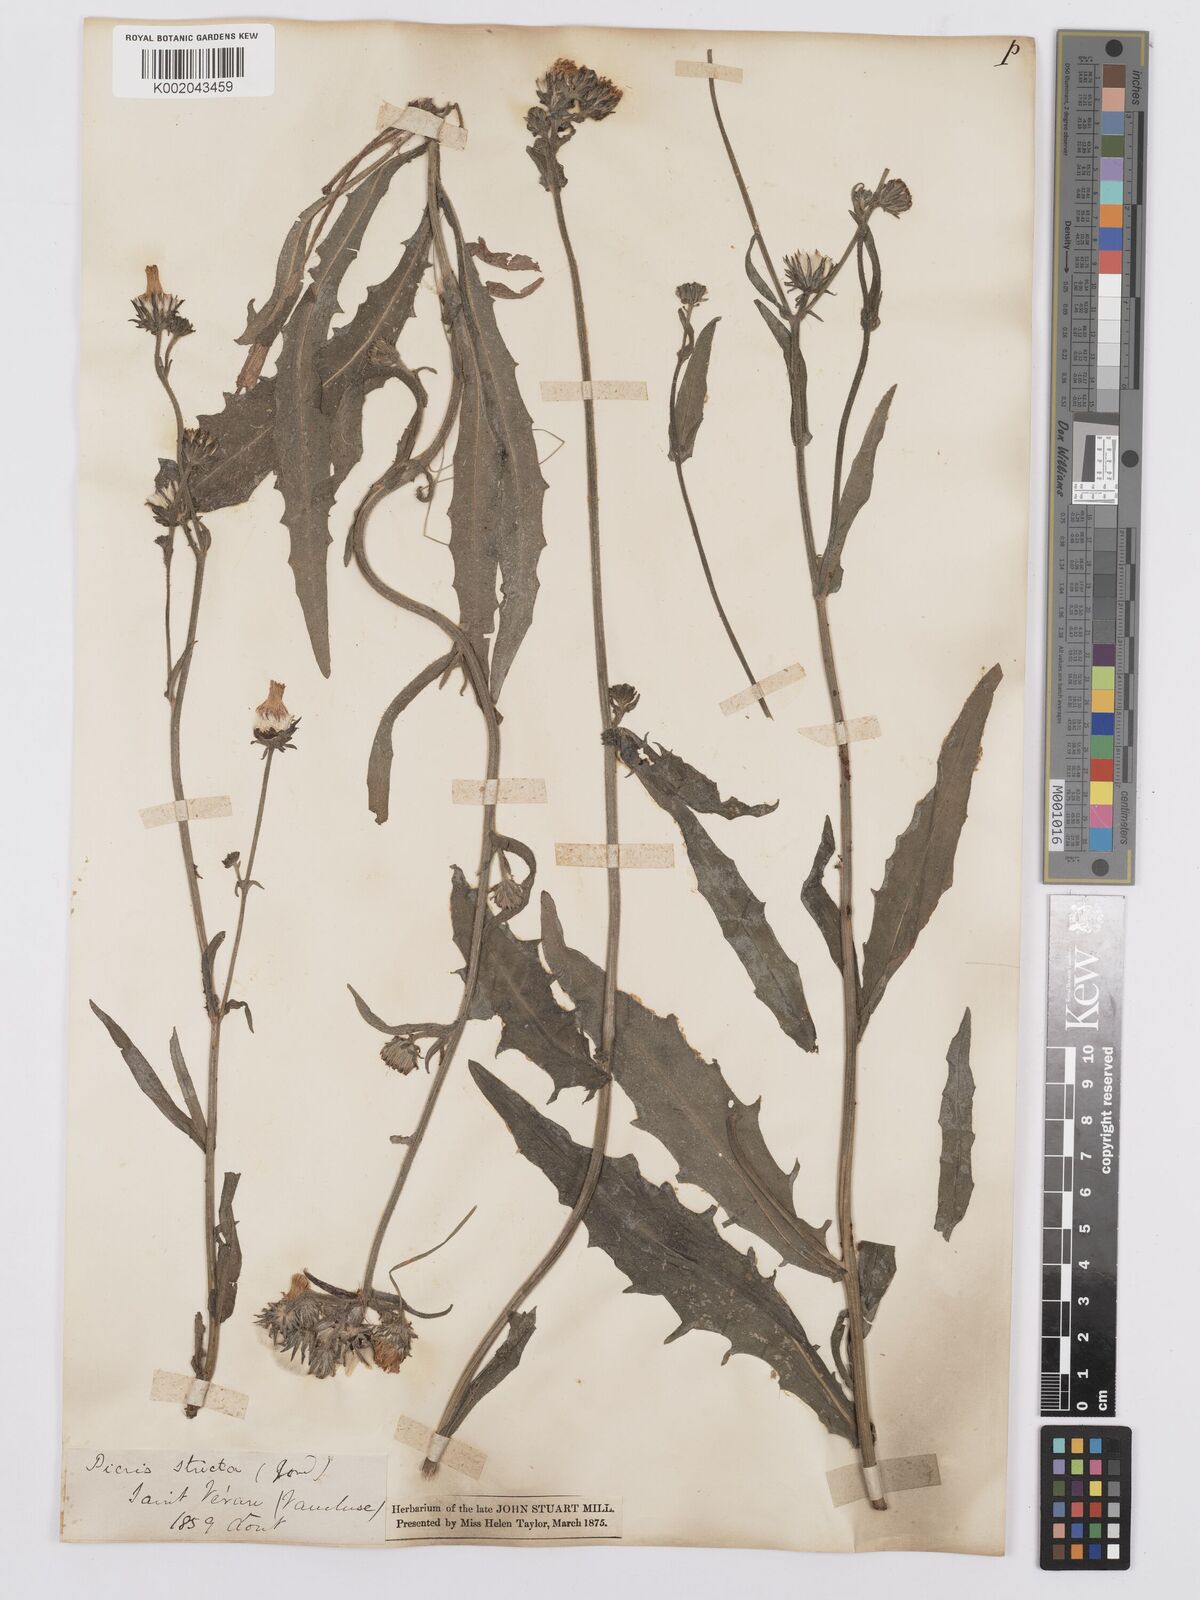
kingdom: Plantae
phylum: Tracheophyta
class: Magnoliopsida
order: Asterales
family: Asteraceae
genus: Picris
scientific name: Picris hieracioides
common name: Hawkweed oxtongue
